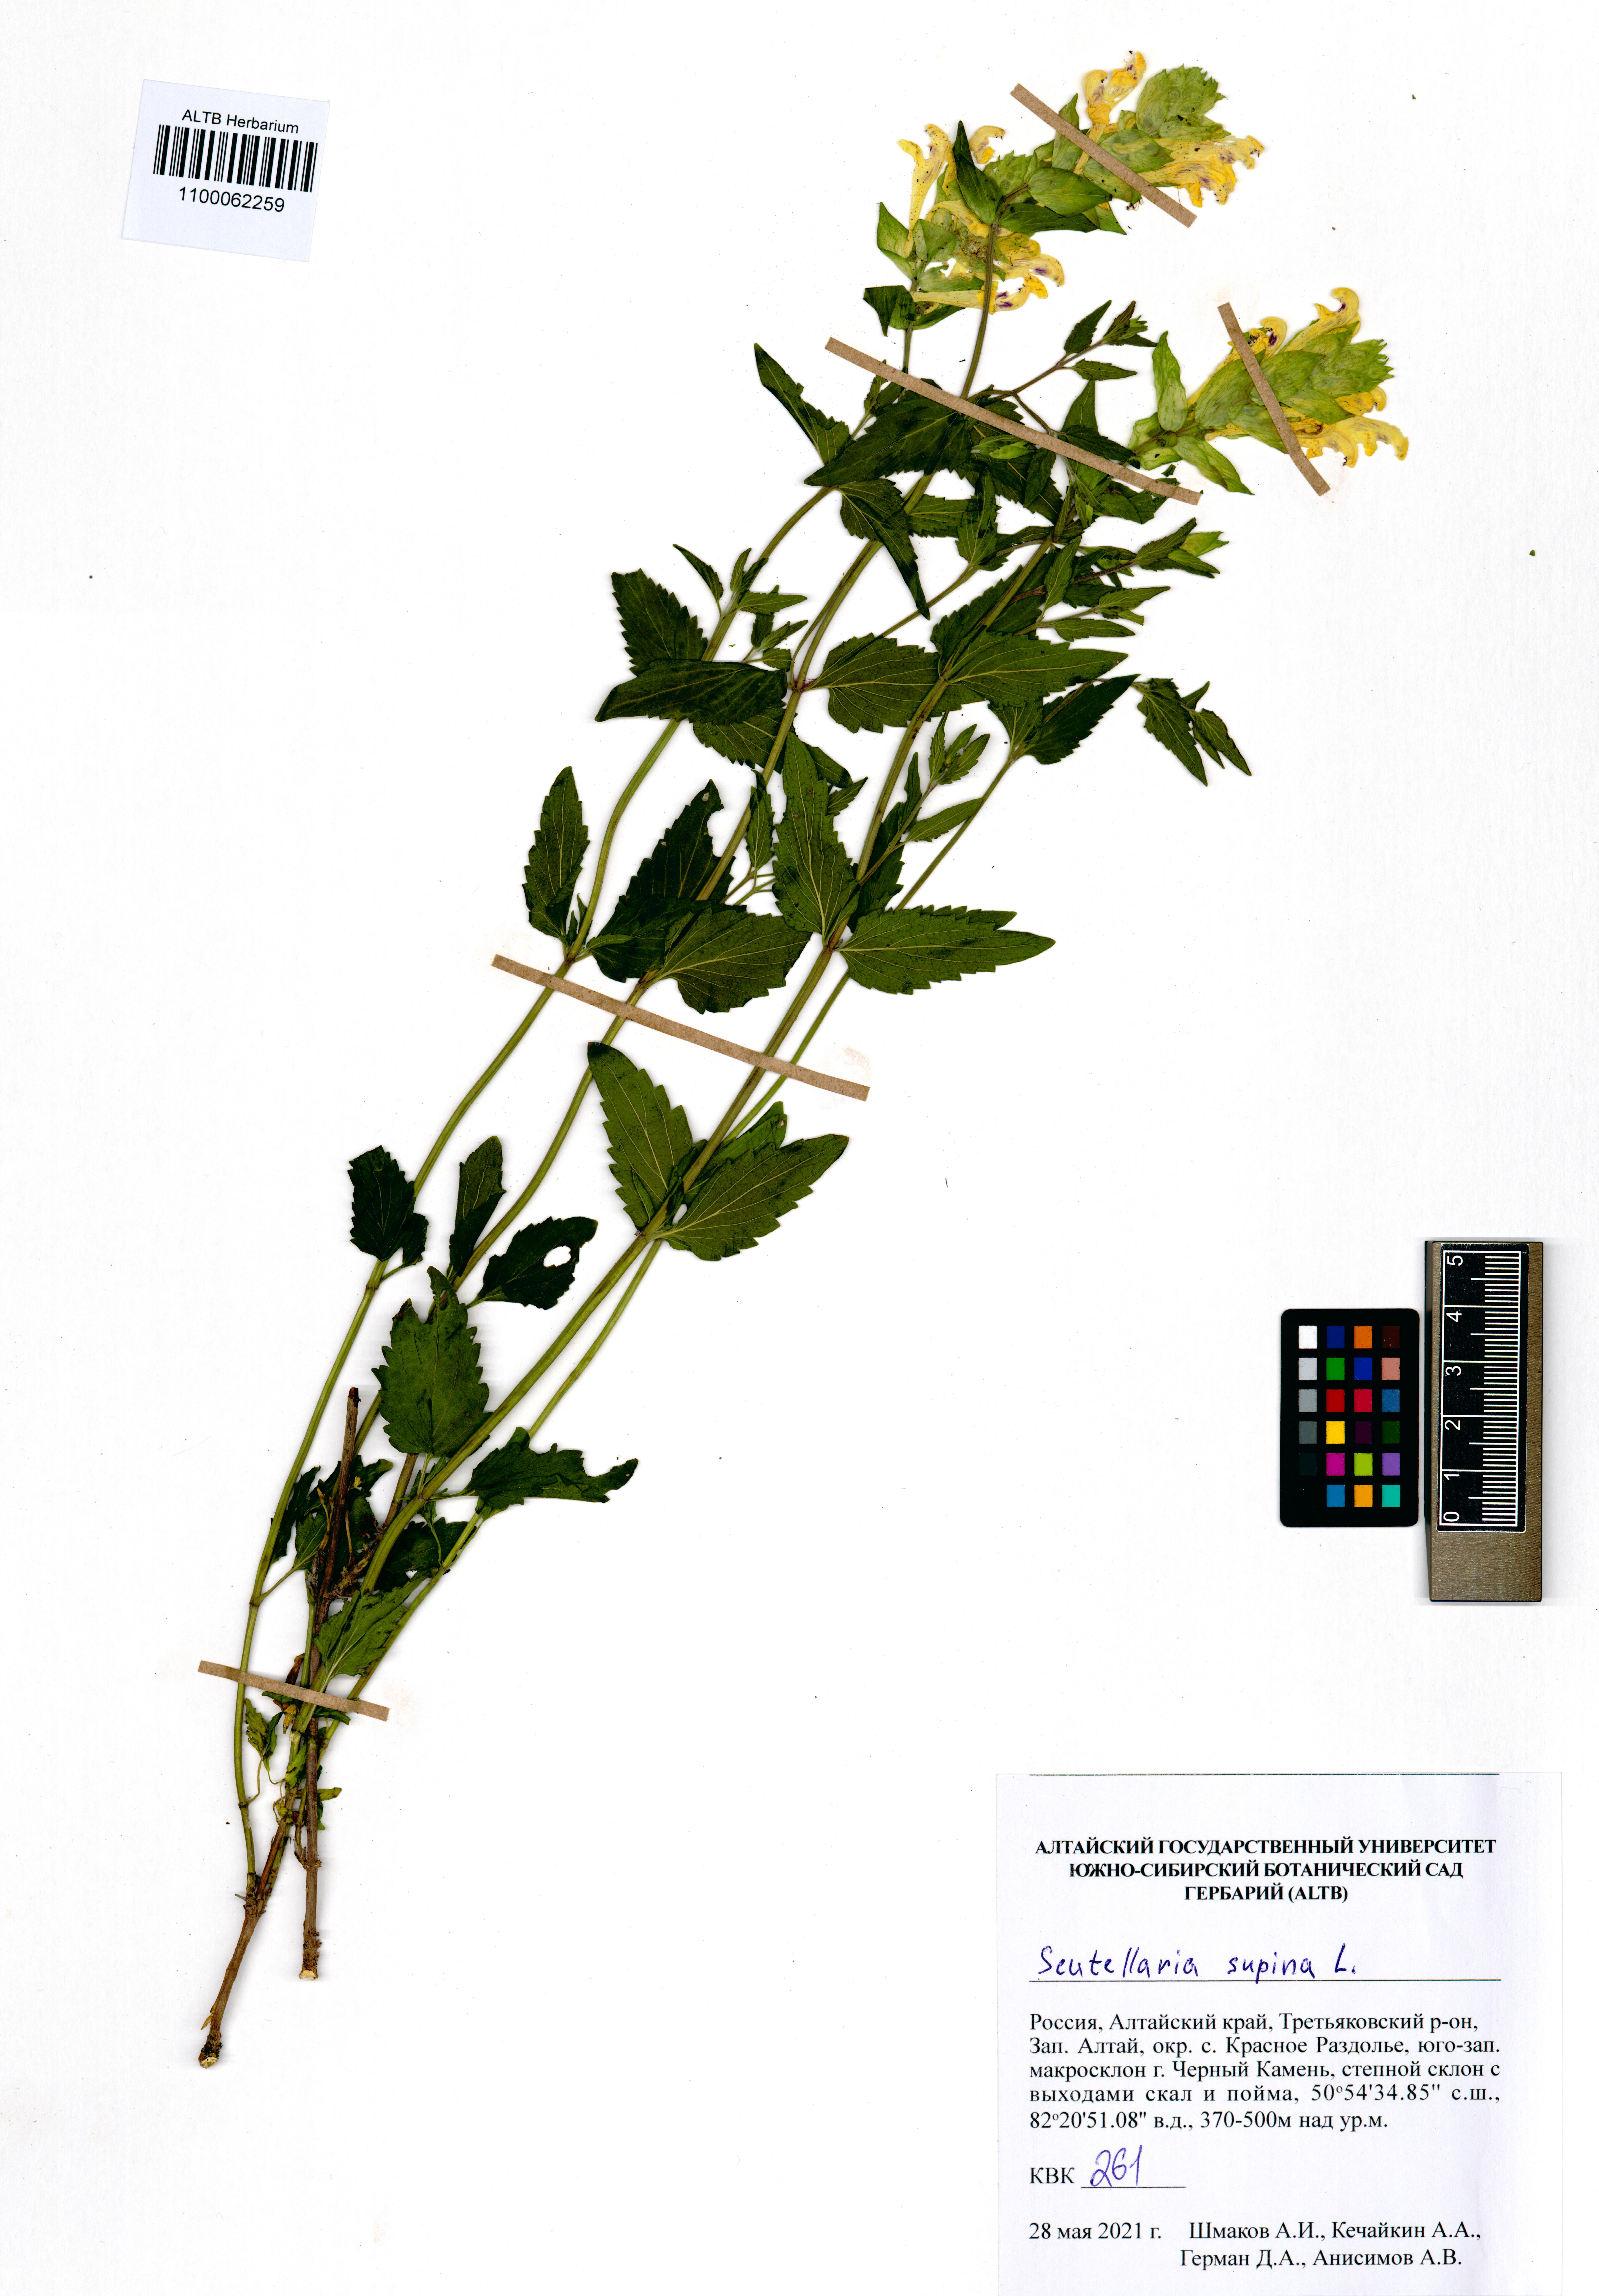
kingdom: Plantae
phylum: Tracheophyta
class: Magnoliopsida
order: Lamiales
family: Lamiaceae
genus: Scutellaria
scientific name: Scutellaria supina
